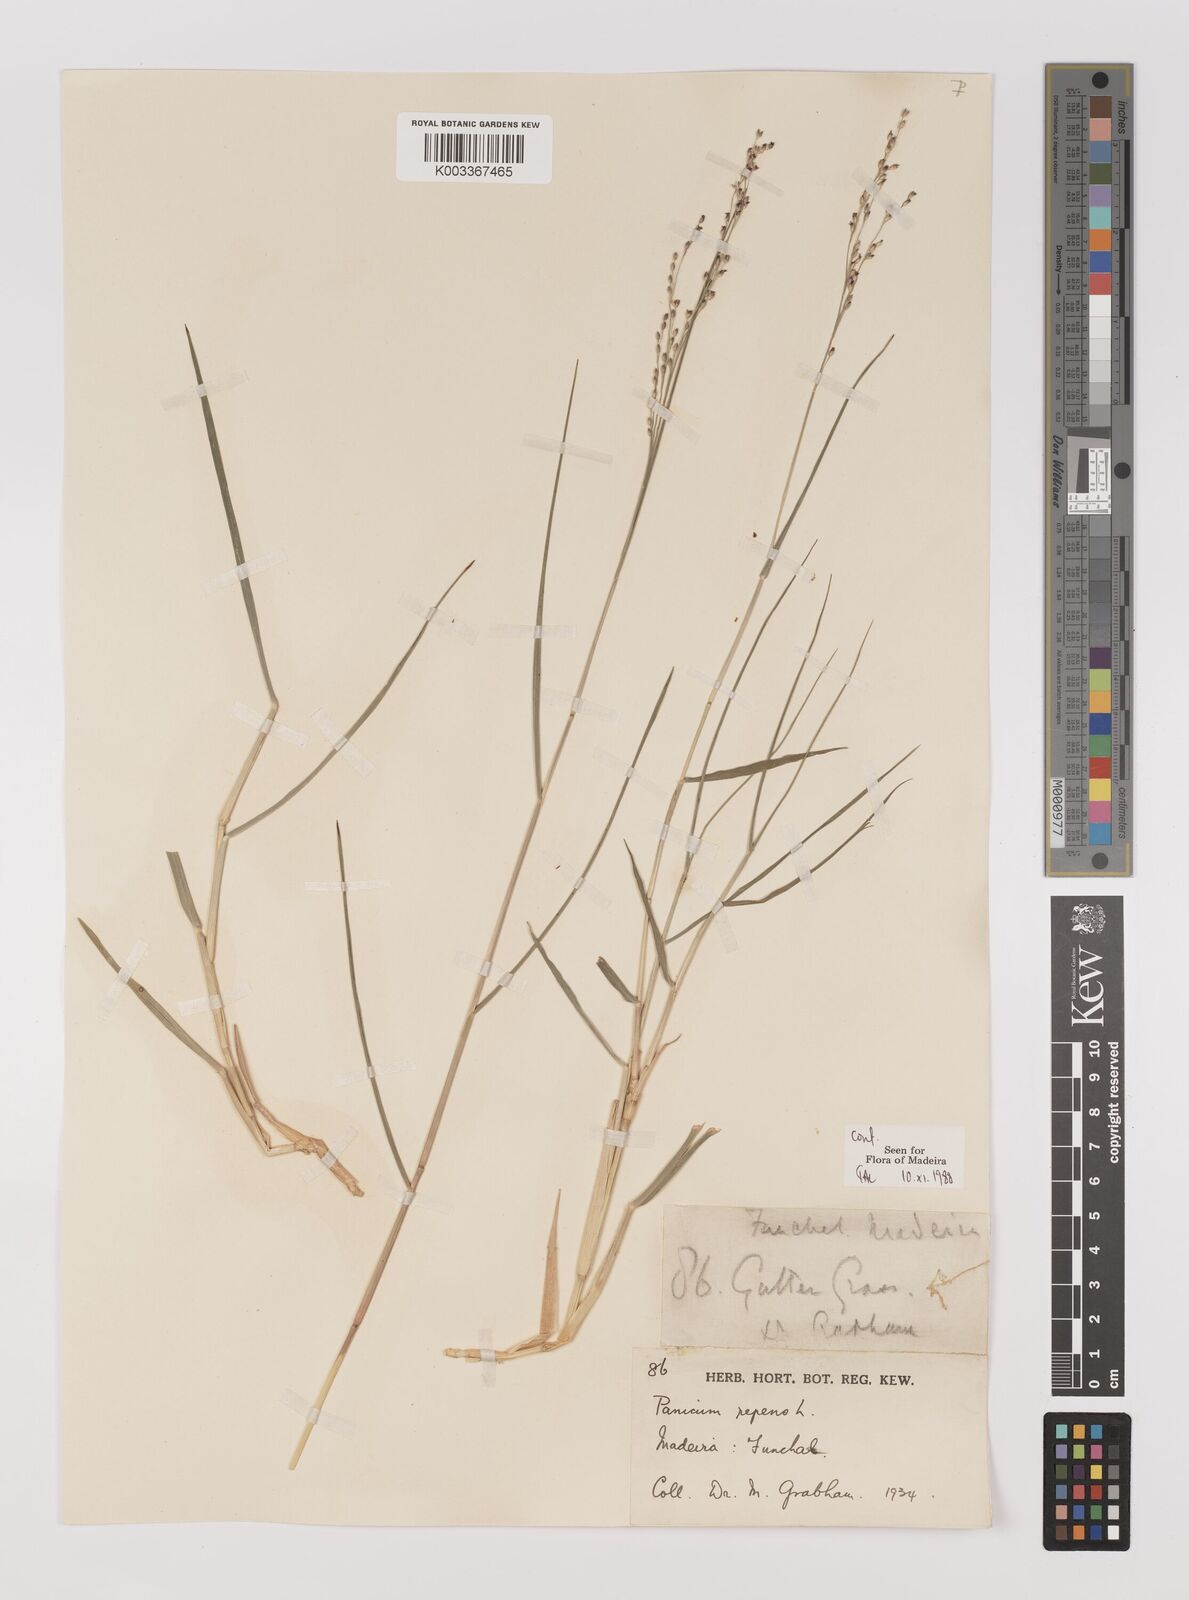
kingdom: Plantae
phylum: Tracheophyta
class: Liliopsida
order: Poales
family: Poaceae
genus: Panicum
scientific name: Panicum repens
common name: Torpedo grass
